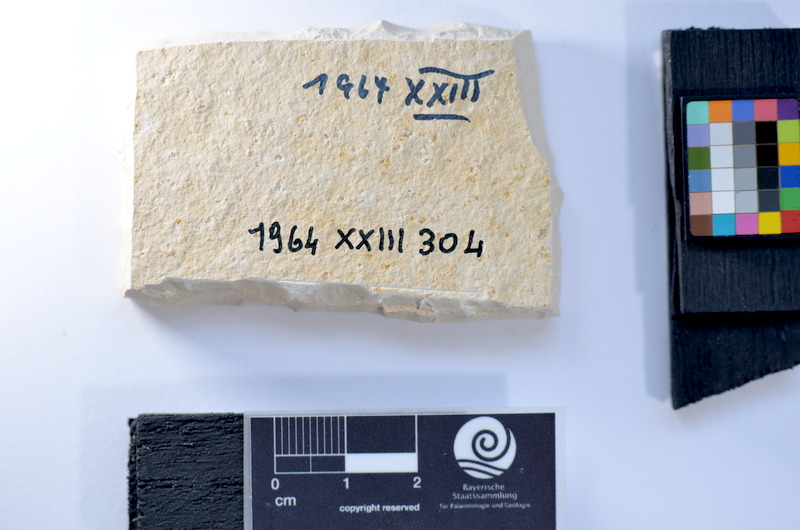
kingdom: Animalia
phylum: Chordata
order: Salmoniformes
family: Orthogonikleithridae
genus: Leptolepides
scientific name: Leptolepides
